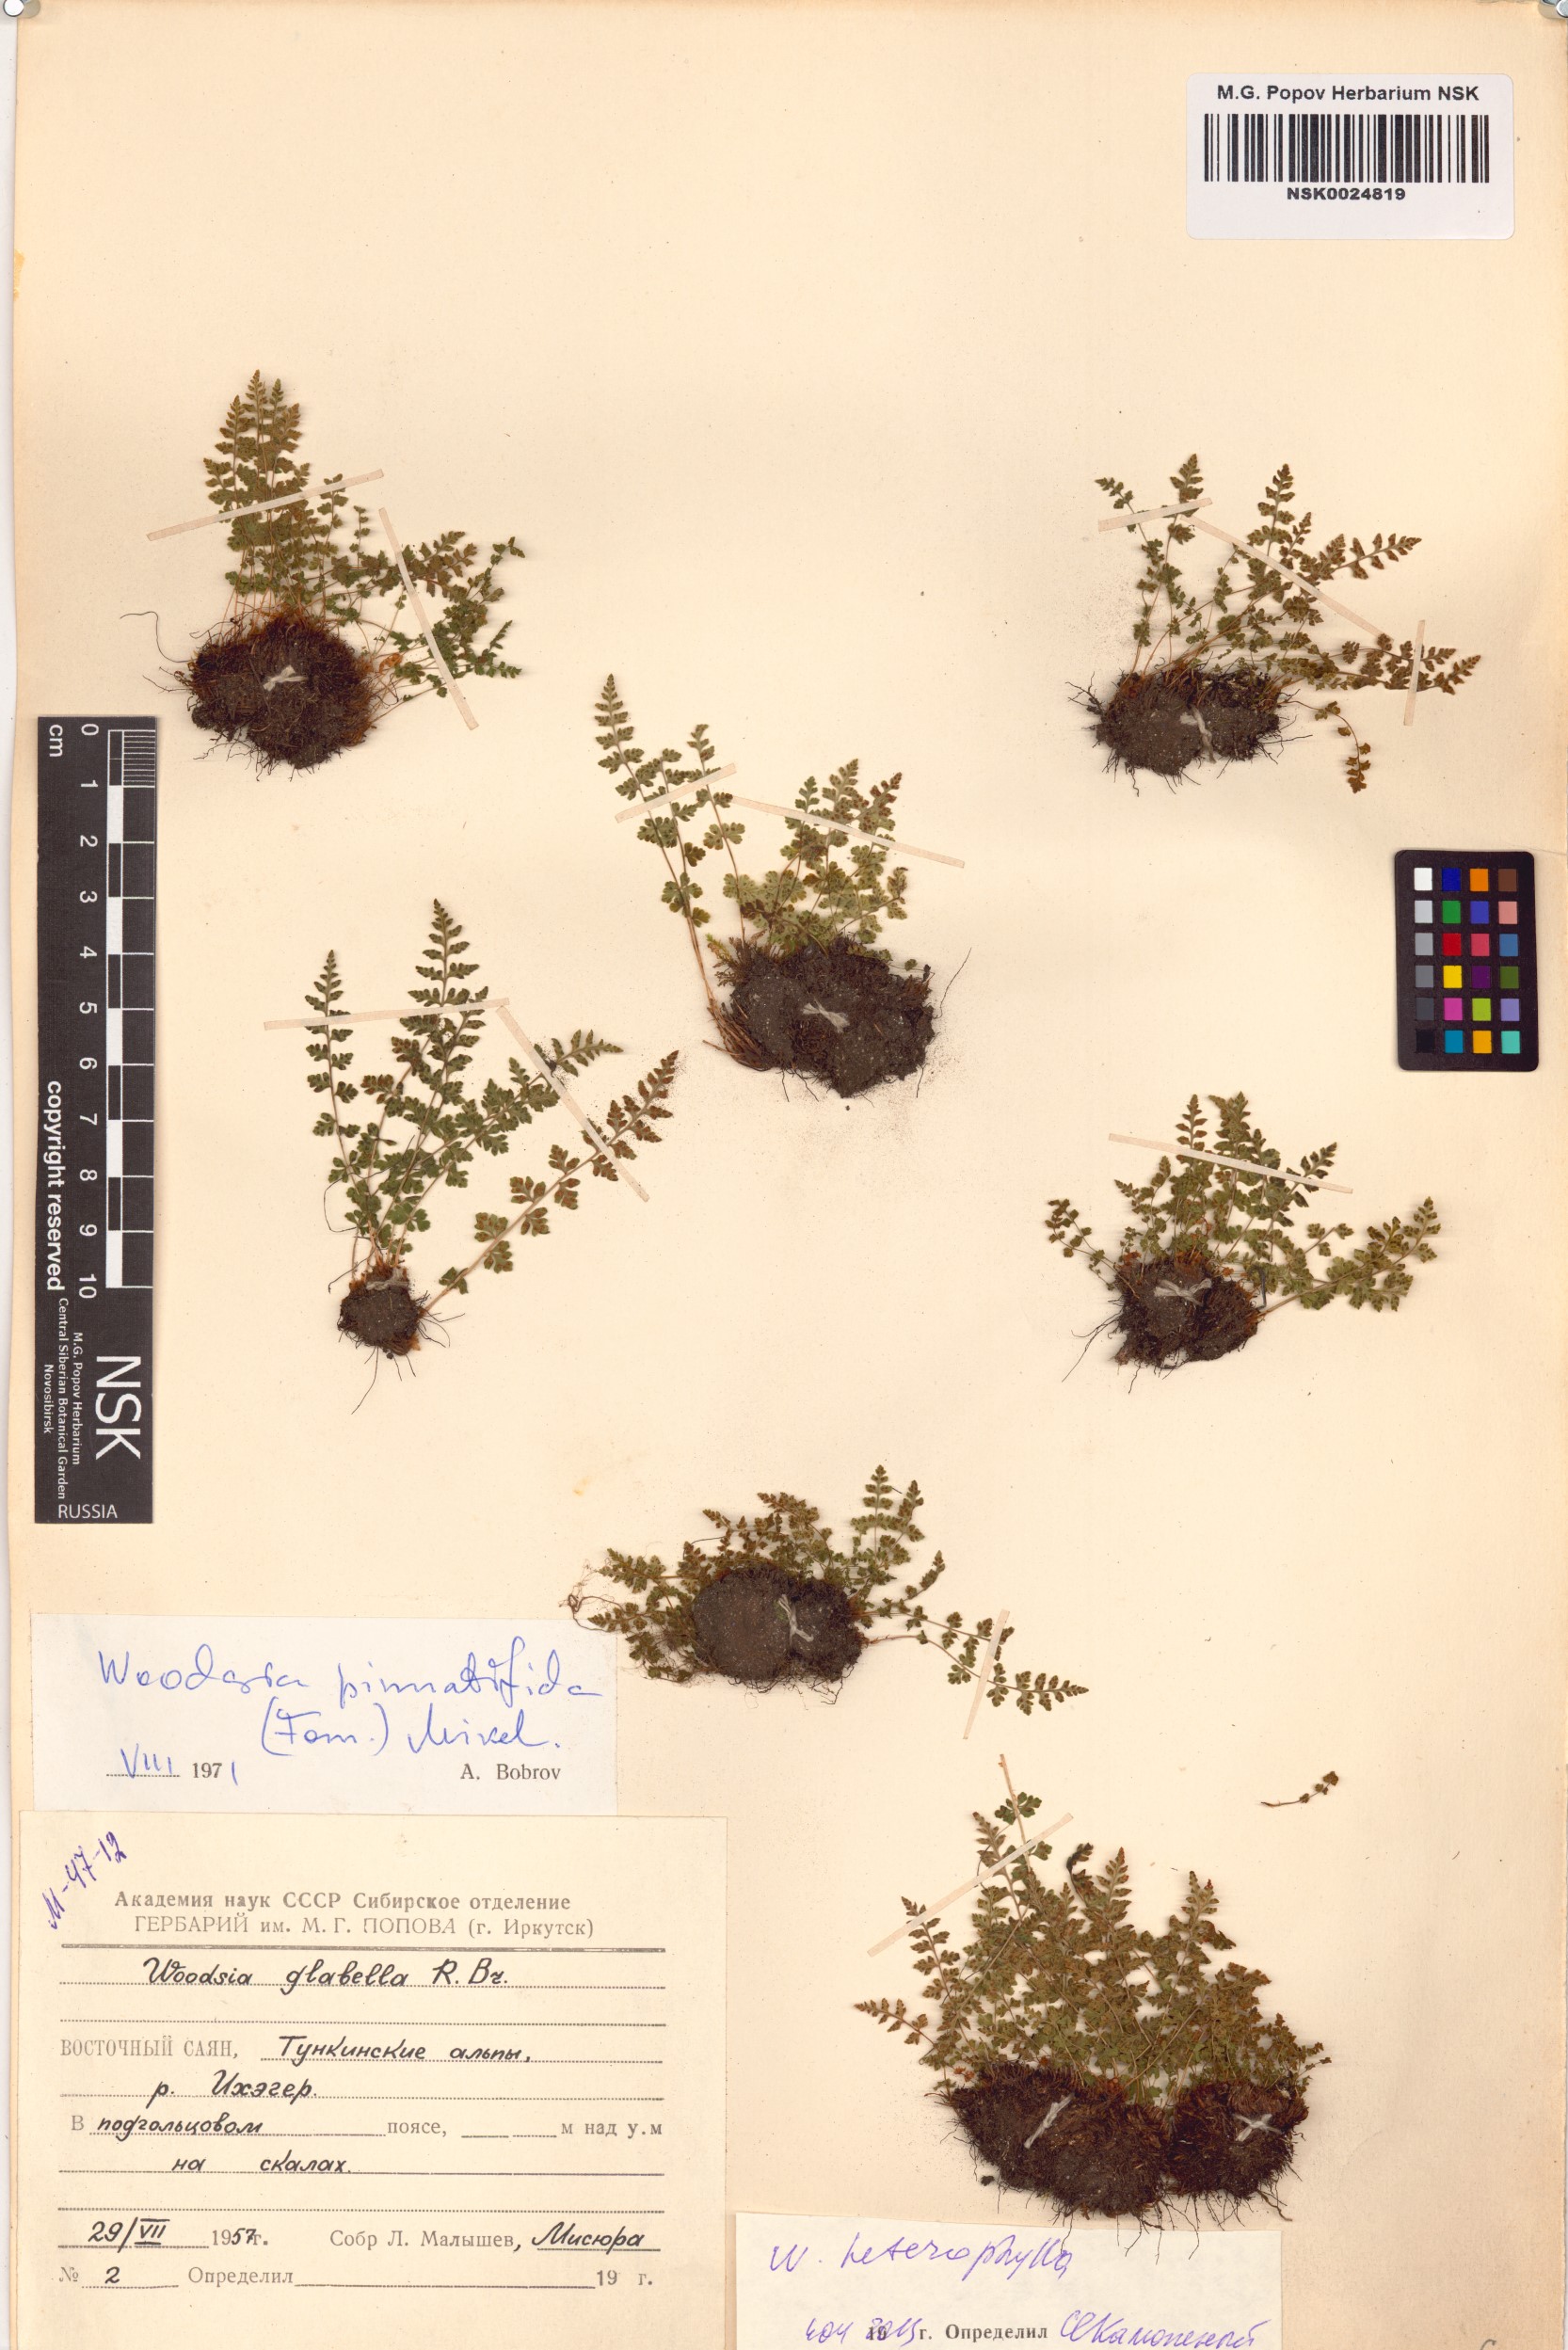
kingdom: Plantae
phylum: Tracheophyta
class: Polypodiopsida
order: Polypodiales
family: Woodsiaceae
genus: Woodsia
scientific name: Woodsia pulchella
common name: Graceful woodsia
